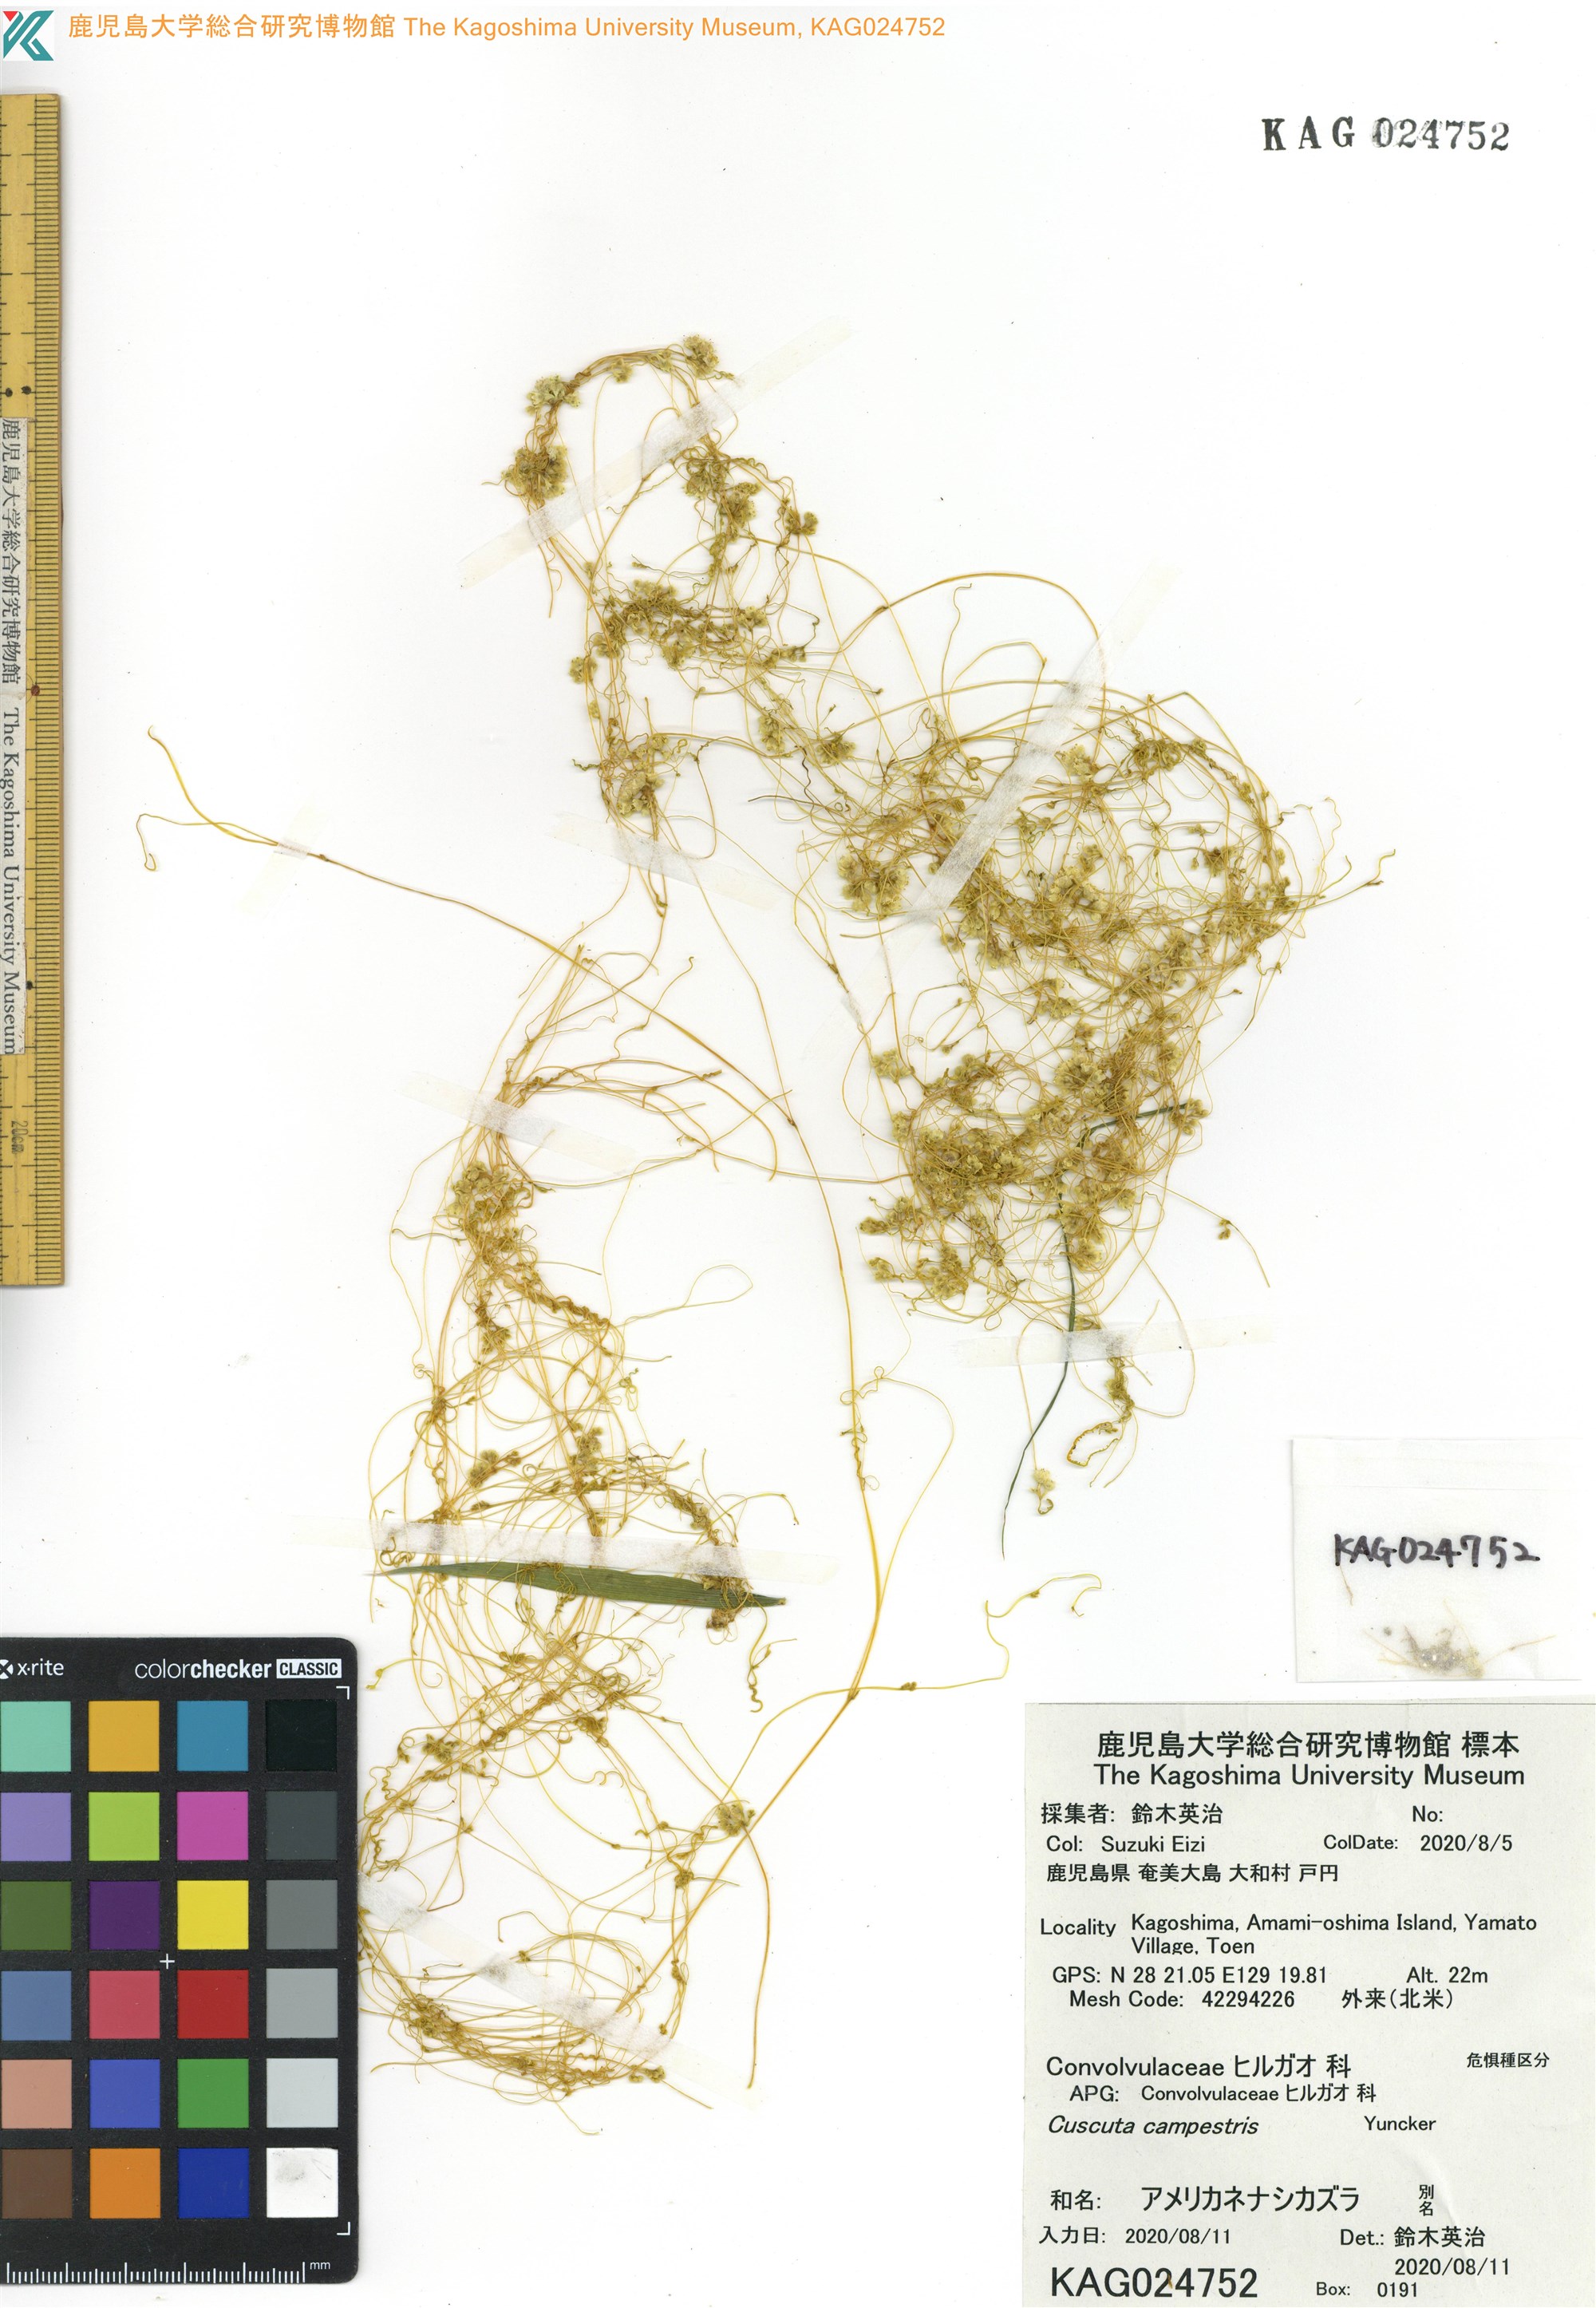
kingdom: Plantae
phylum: Tracheophyta
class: Magnoliopsida
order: Solanales
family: Convolvulaceae
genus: Cuscuta
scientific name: Cuscuta campestris
